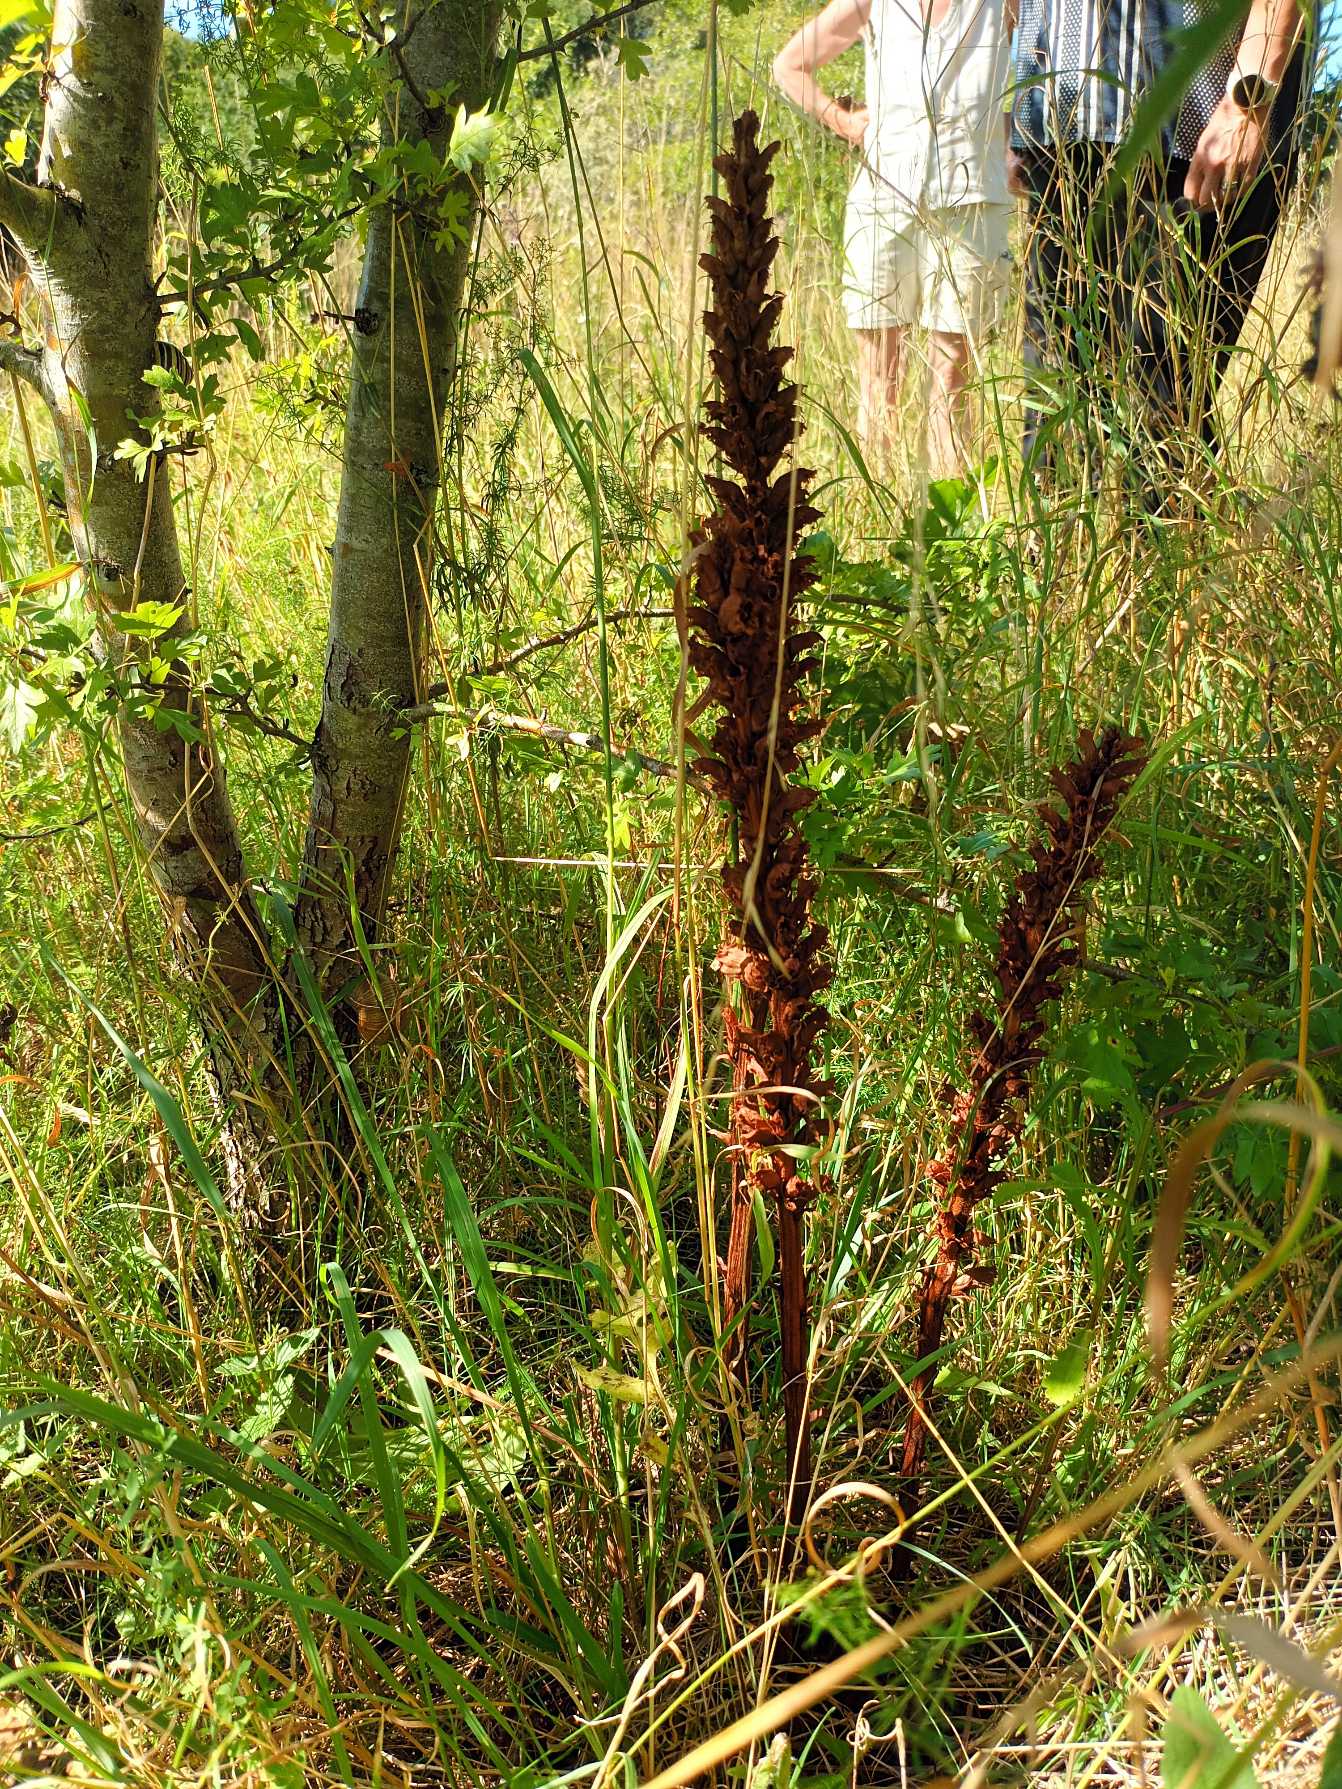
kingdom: Plantae
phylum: Tracheophyta
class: Magnoliopsida
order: Lamiales
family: Orobanchaceae
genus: Orobanche
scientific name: Orobanche elatior
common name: Stor gyvelkvæler
